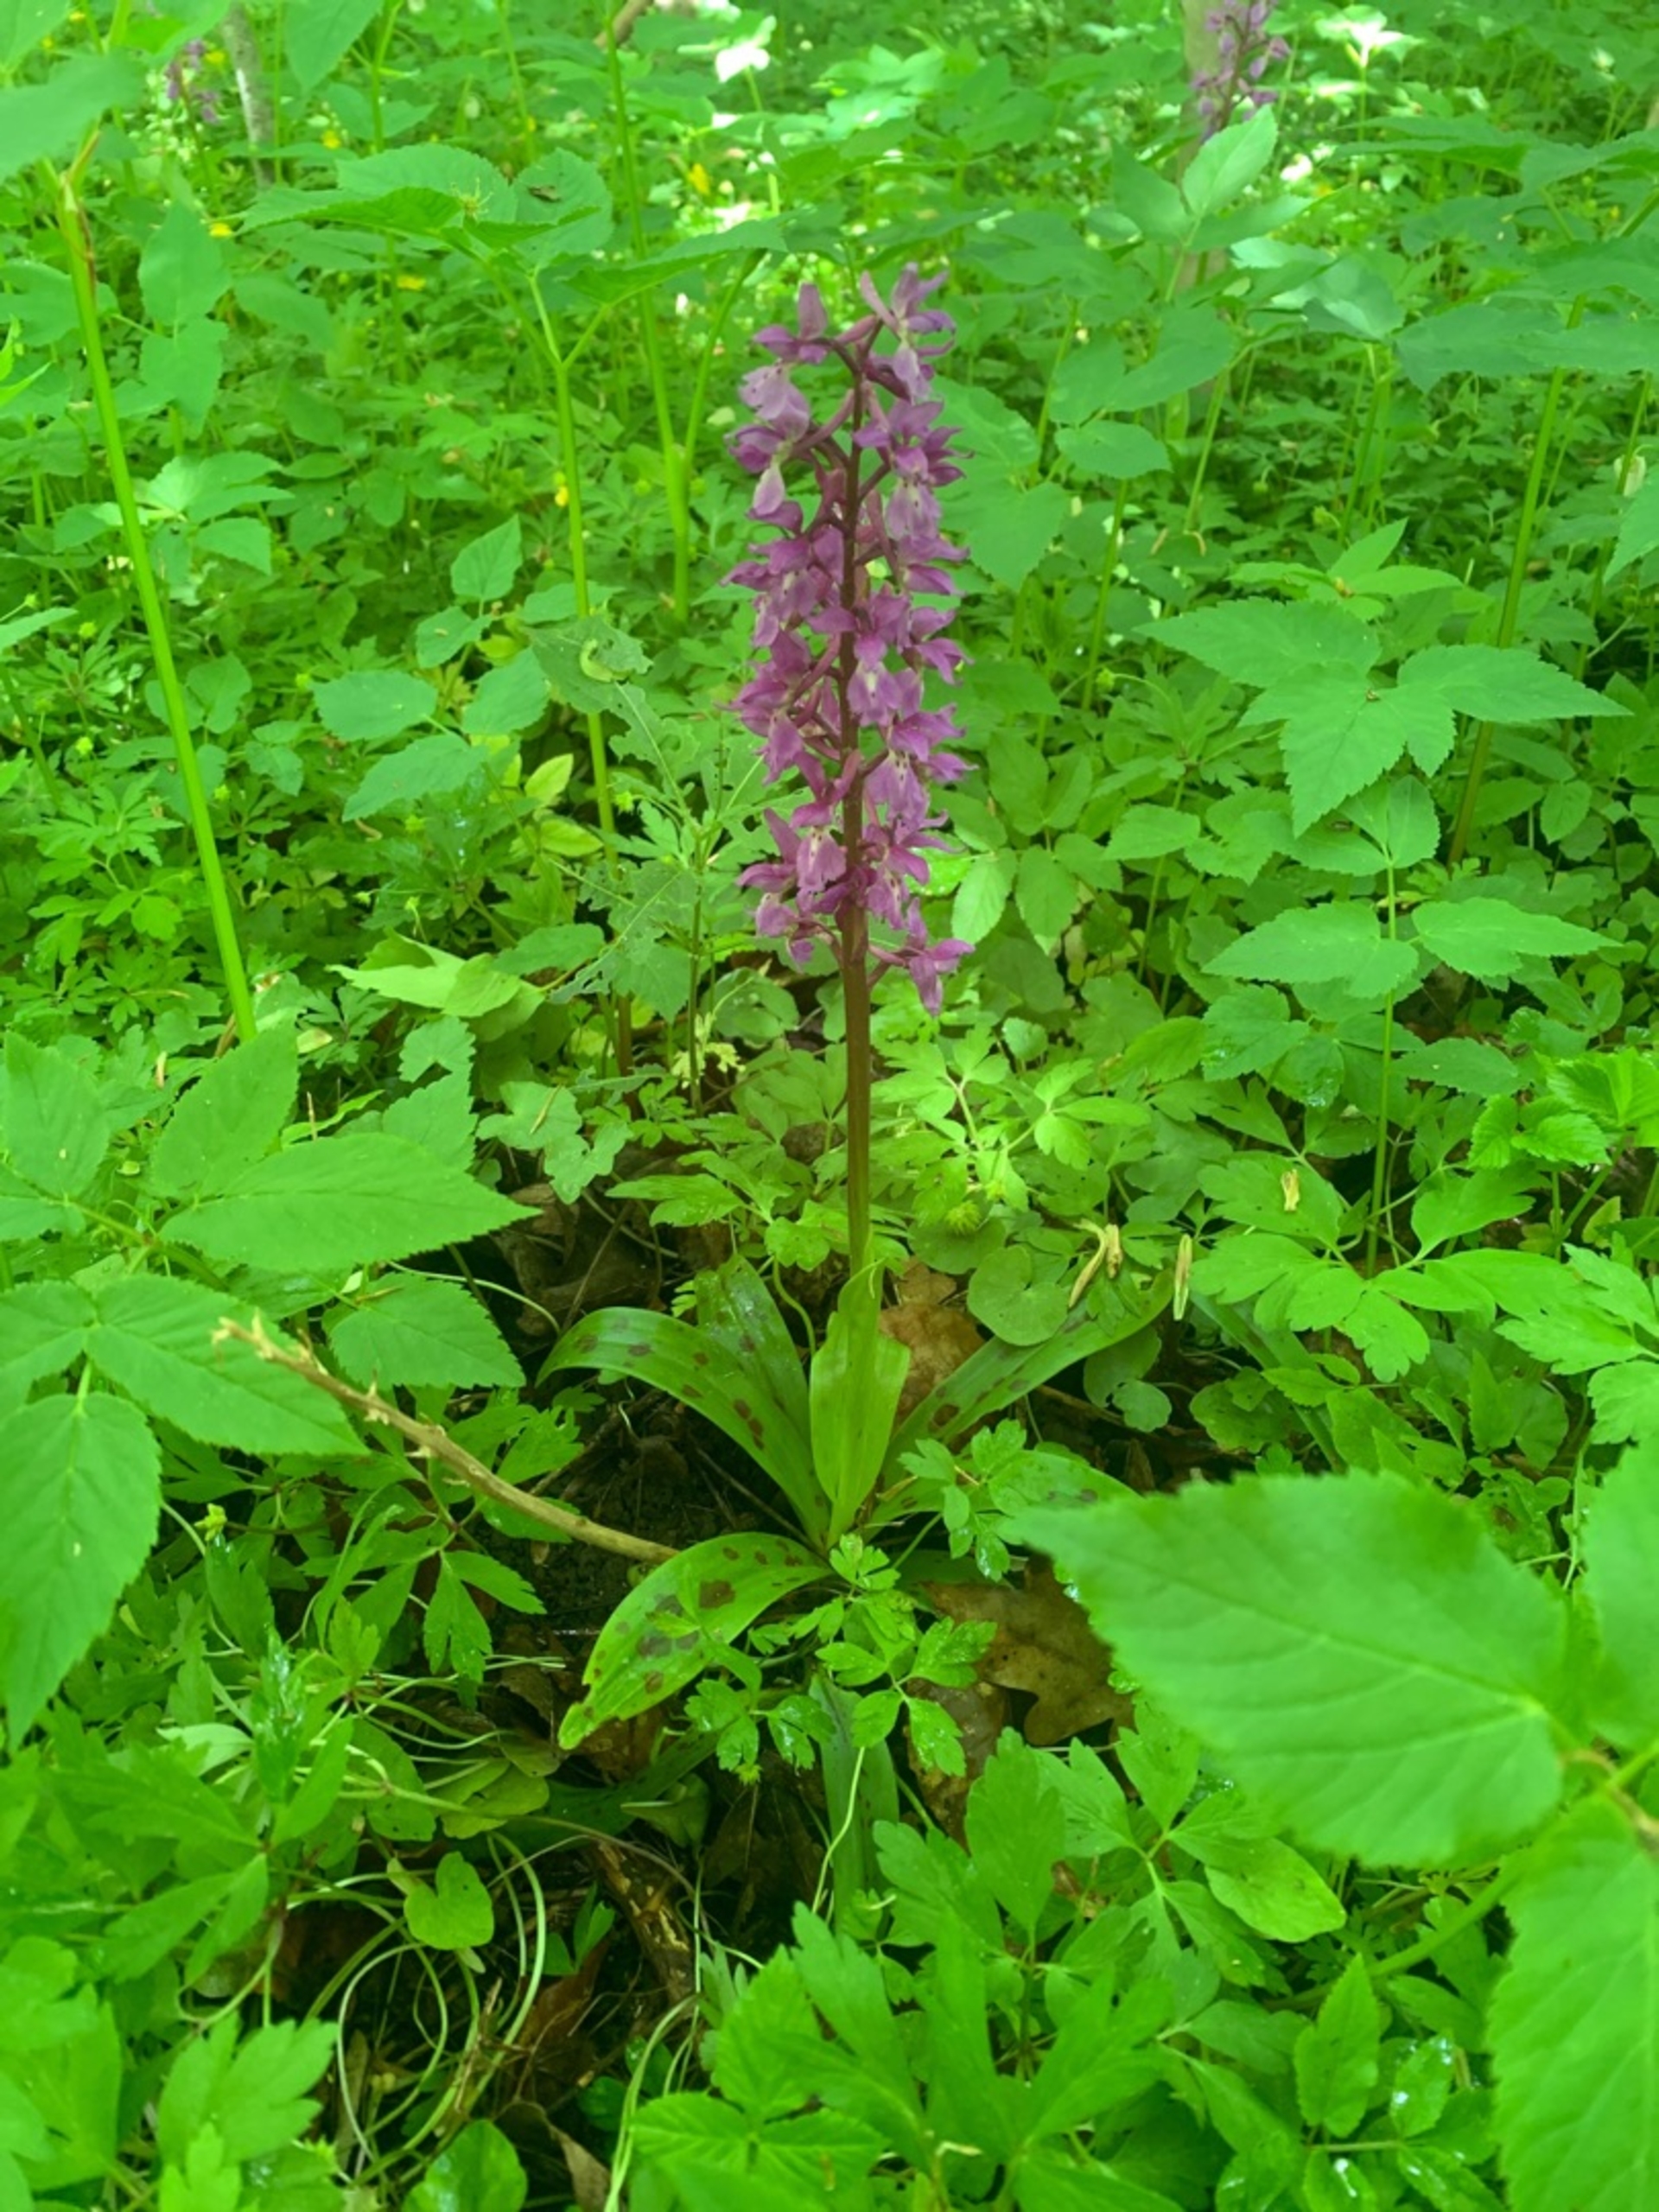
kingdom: Plantae
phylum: Tracheophyta
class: Liliopsida
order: Asparagales
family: Orchidaceae
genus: Orchis
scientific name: Orchis mascula
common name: Tyndakset gøgeurt
